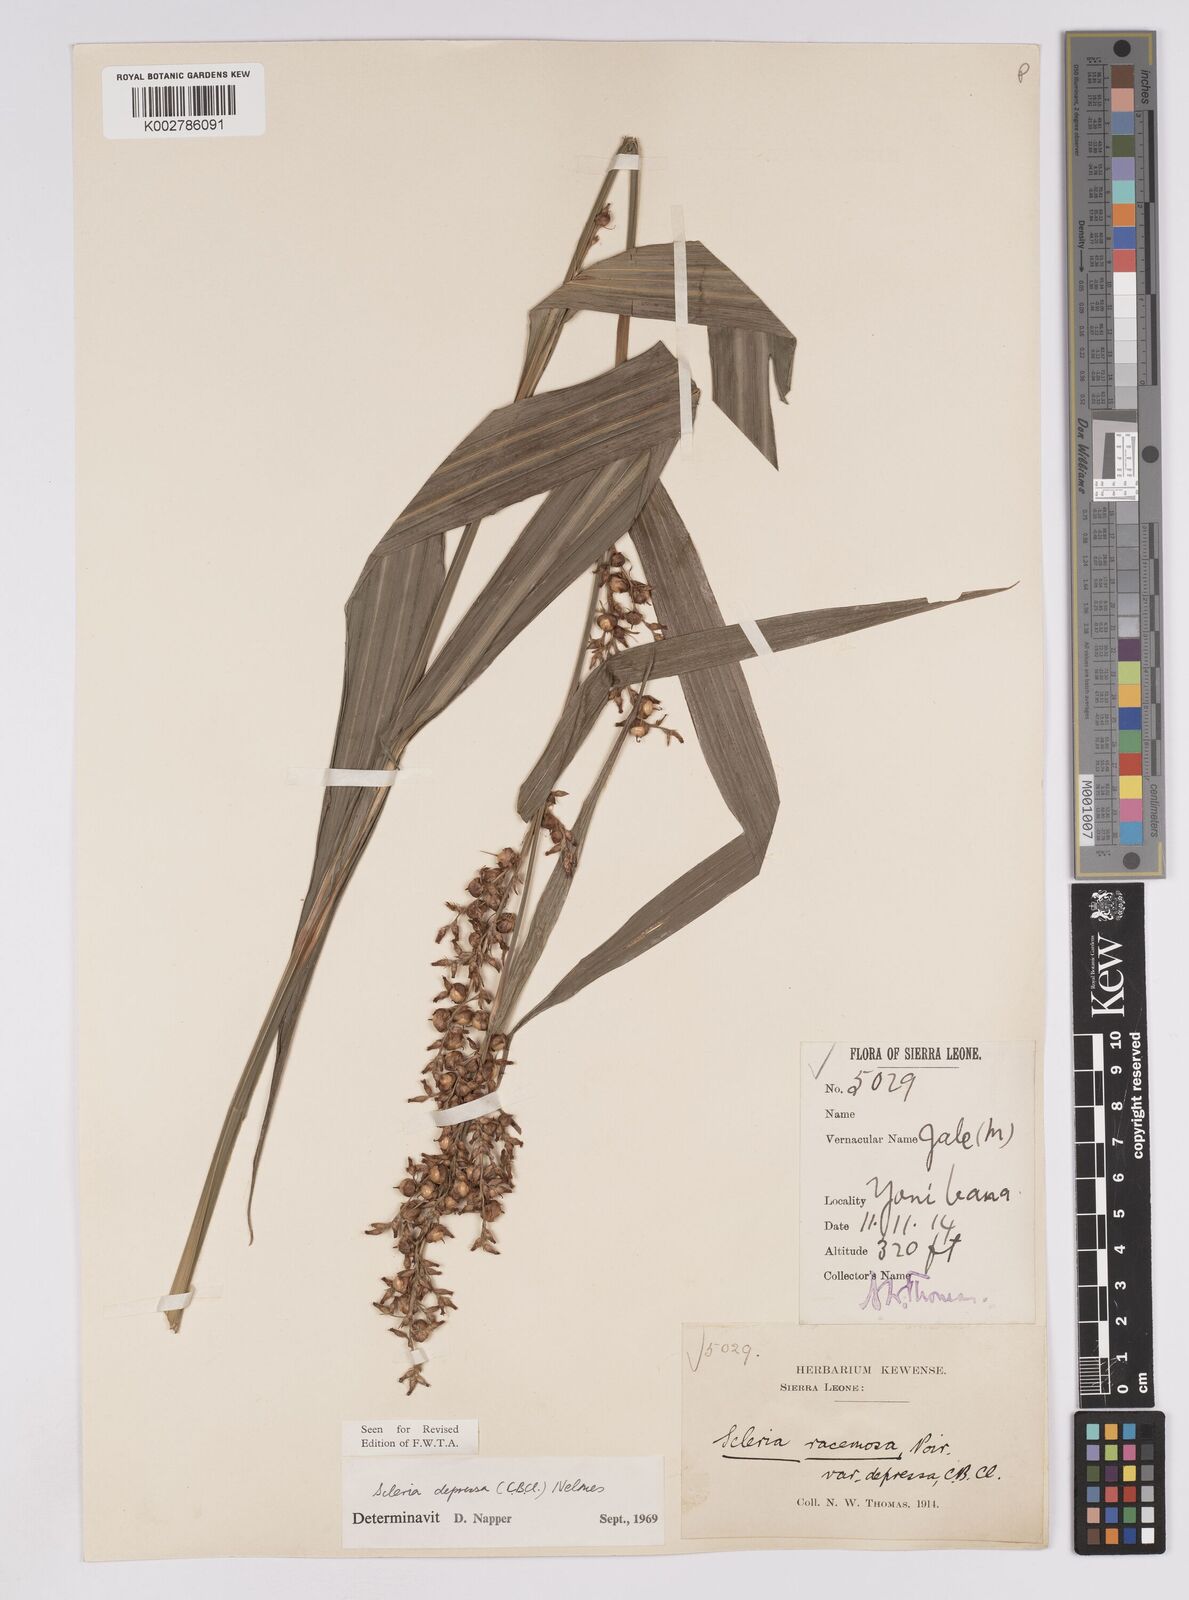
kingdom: Plantae
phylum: Tracheophyta
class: Liliopsida
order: Poales
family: Cyperaceae
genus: Scleria
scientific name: Scleria depressa
